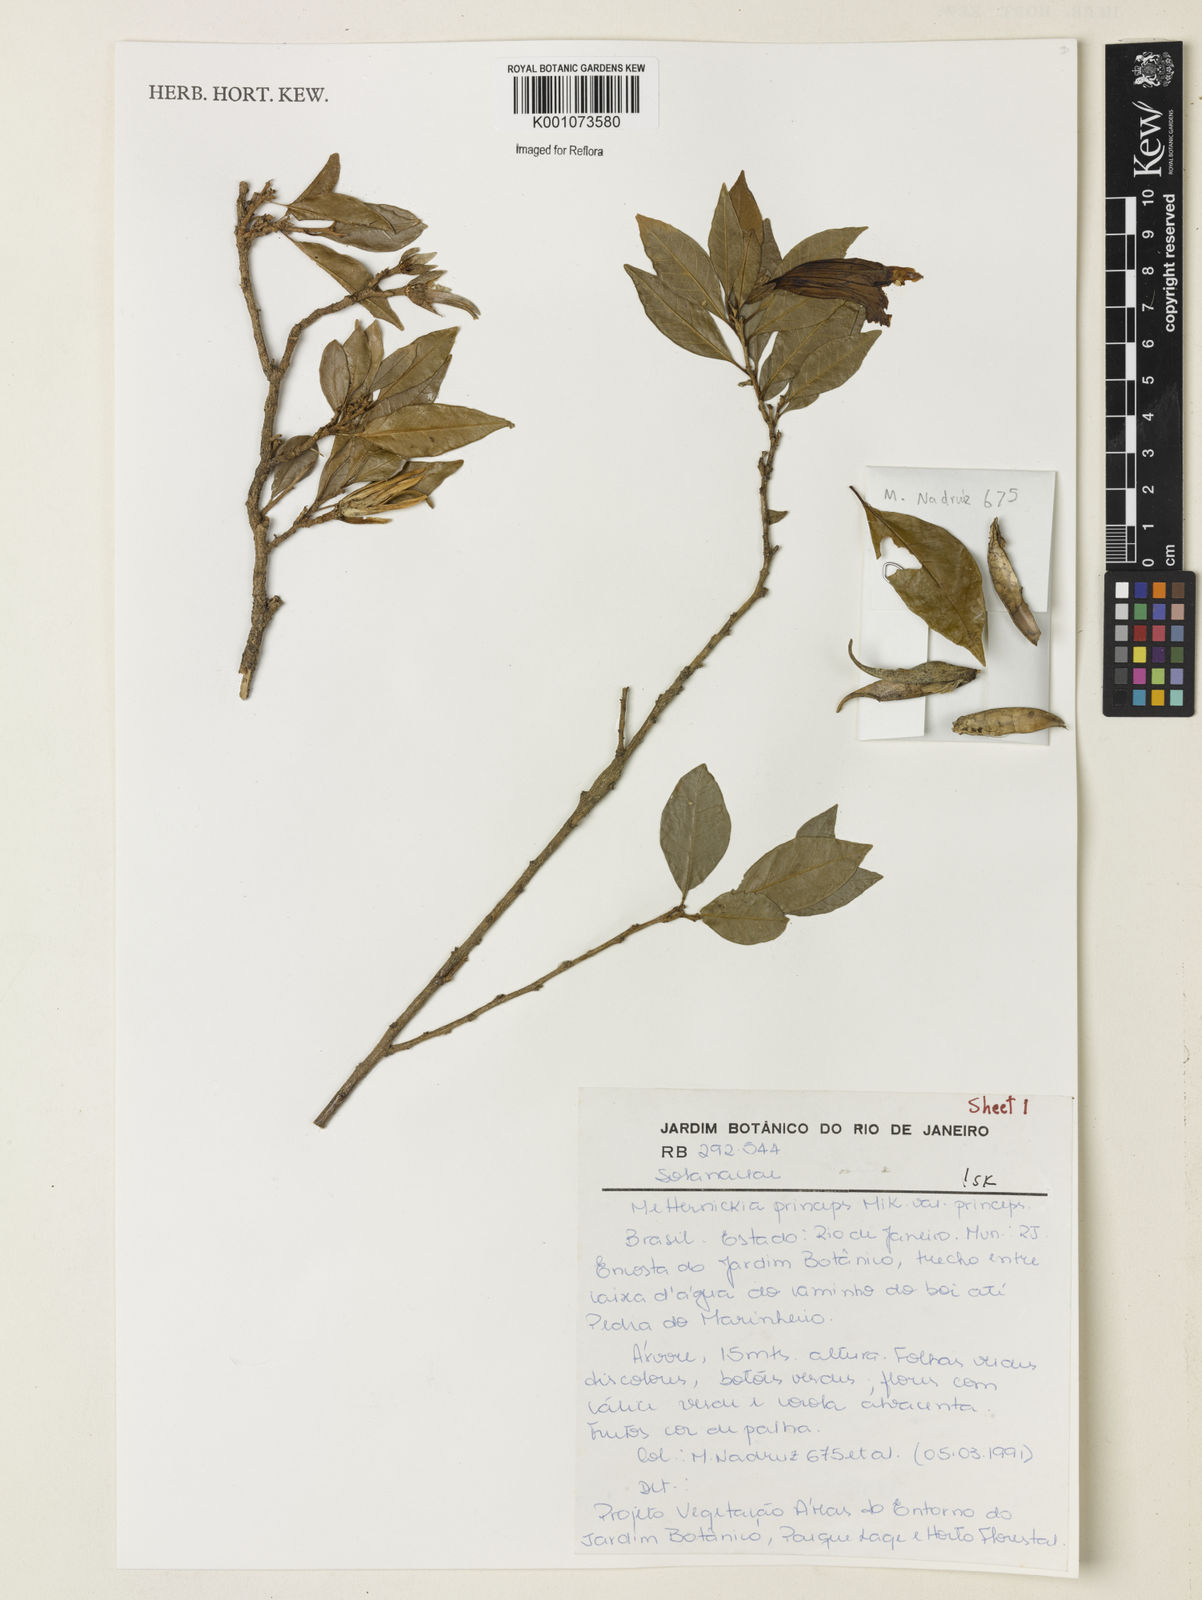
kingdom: Plantae
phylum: Tracheophyta
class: Magnoliopsida
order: Solanales
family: Solanaceae
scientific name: Solanaceae
